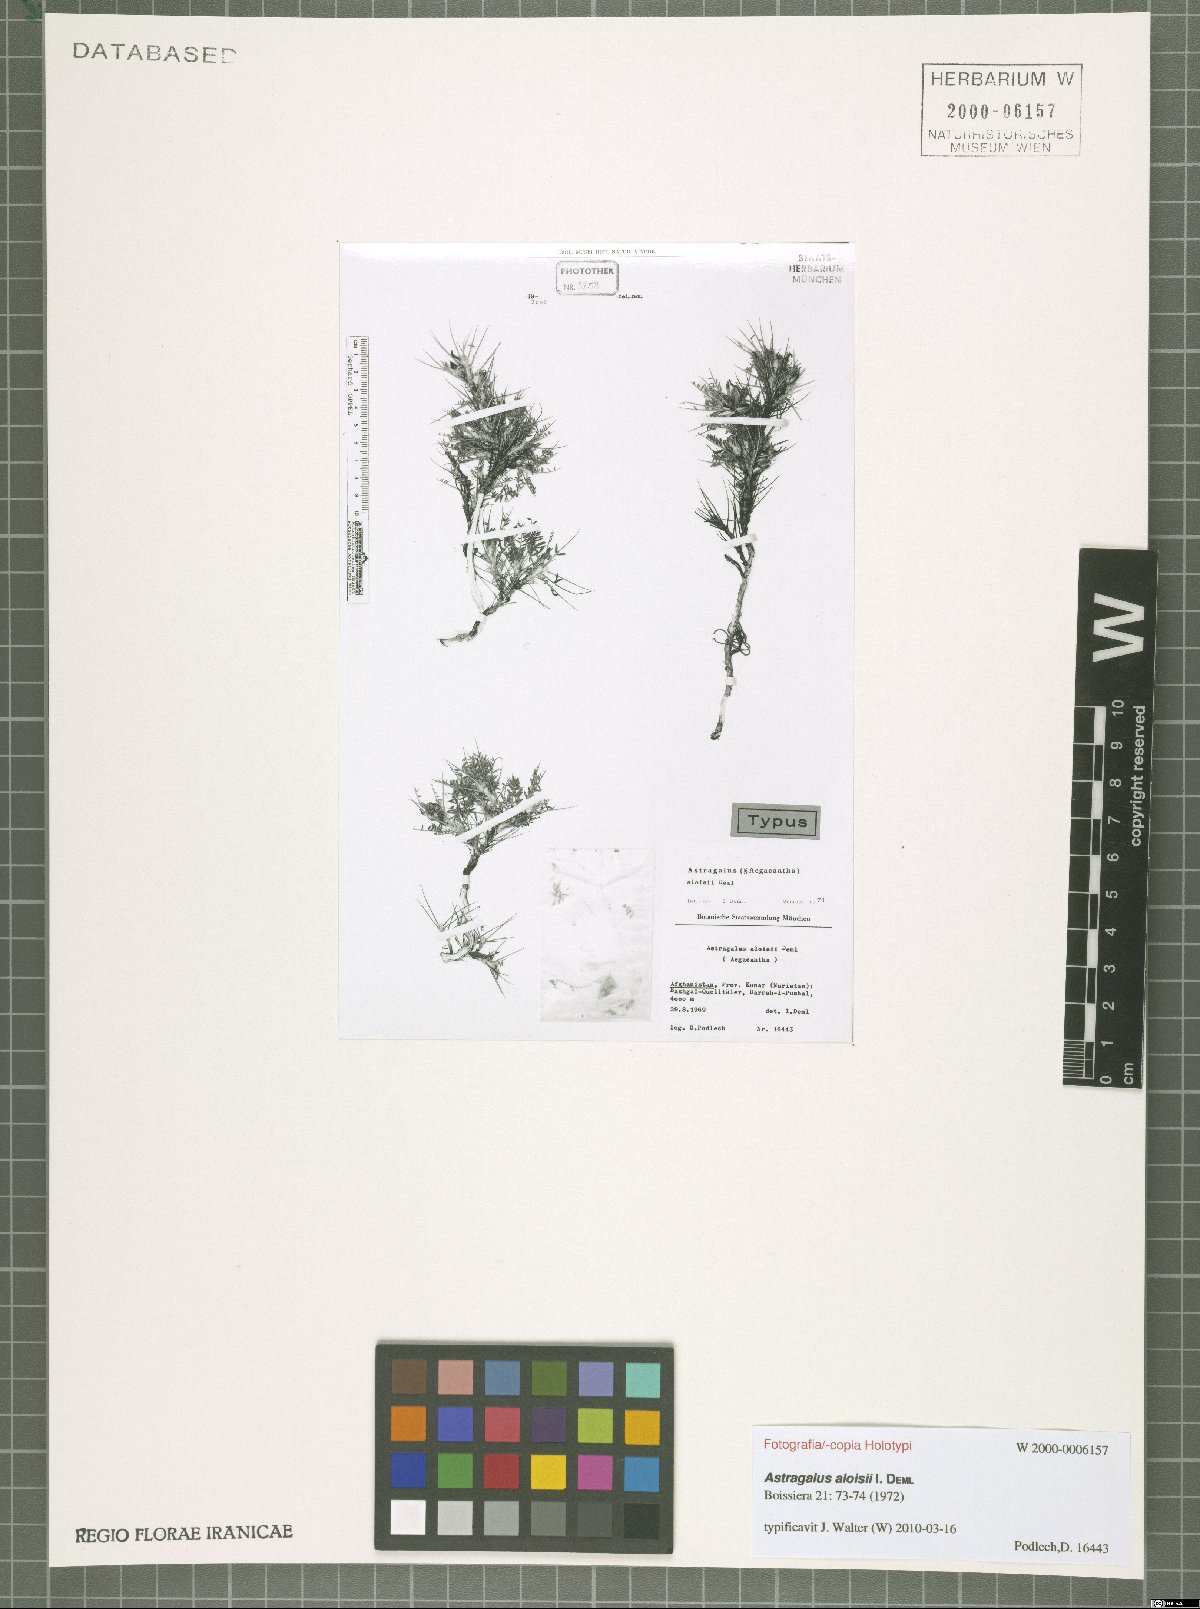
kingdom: Plantae
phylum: Tracheophyta
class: Magnoliopsida
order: Fabales
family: Fabaceae
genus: Astragalus
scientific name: Astragalus aloisii
